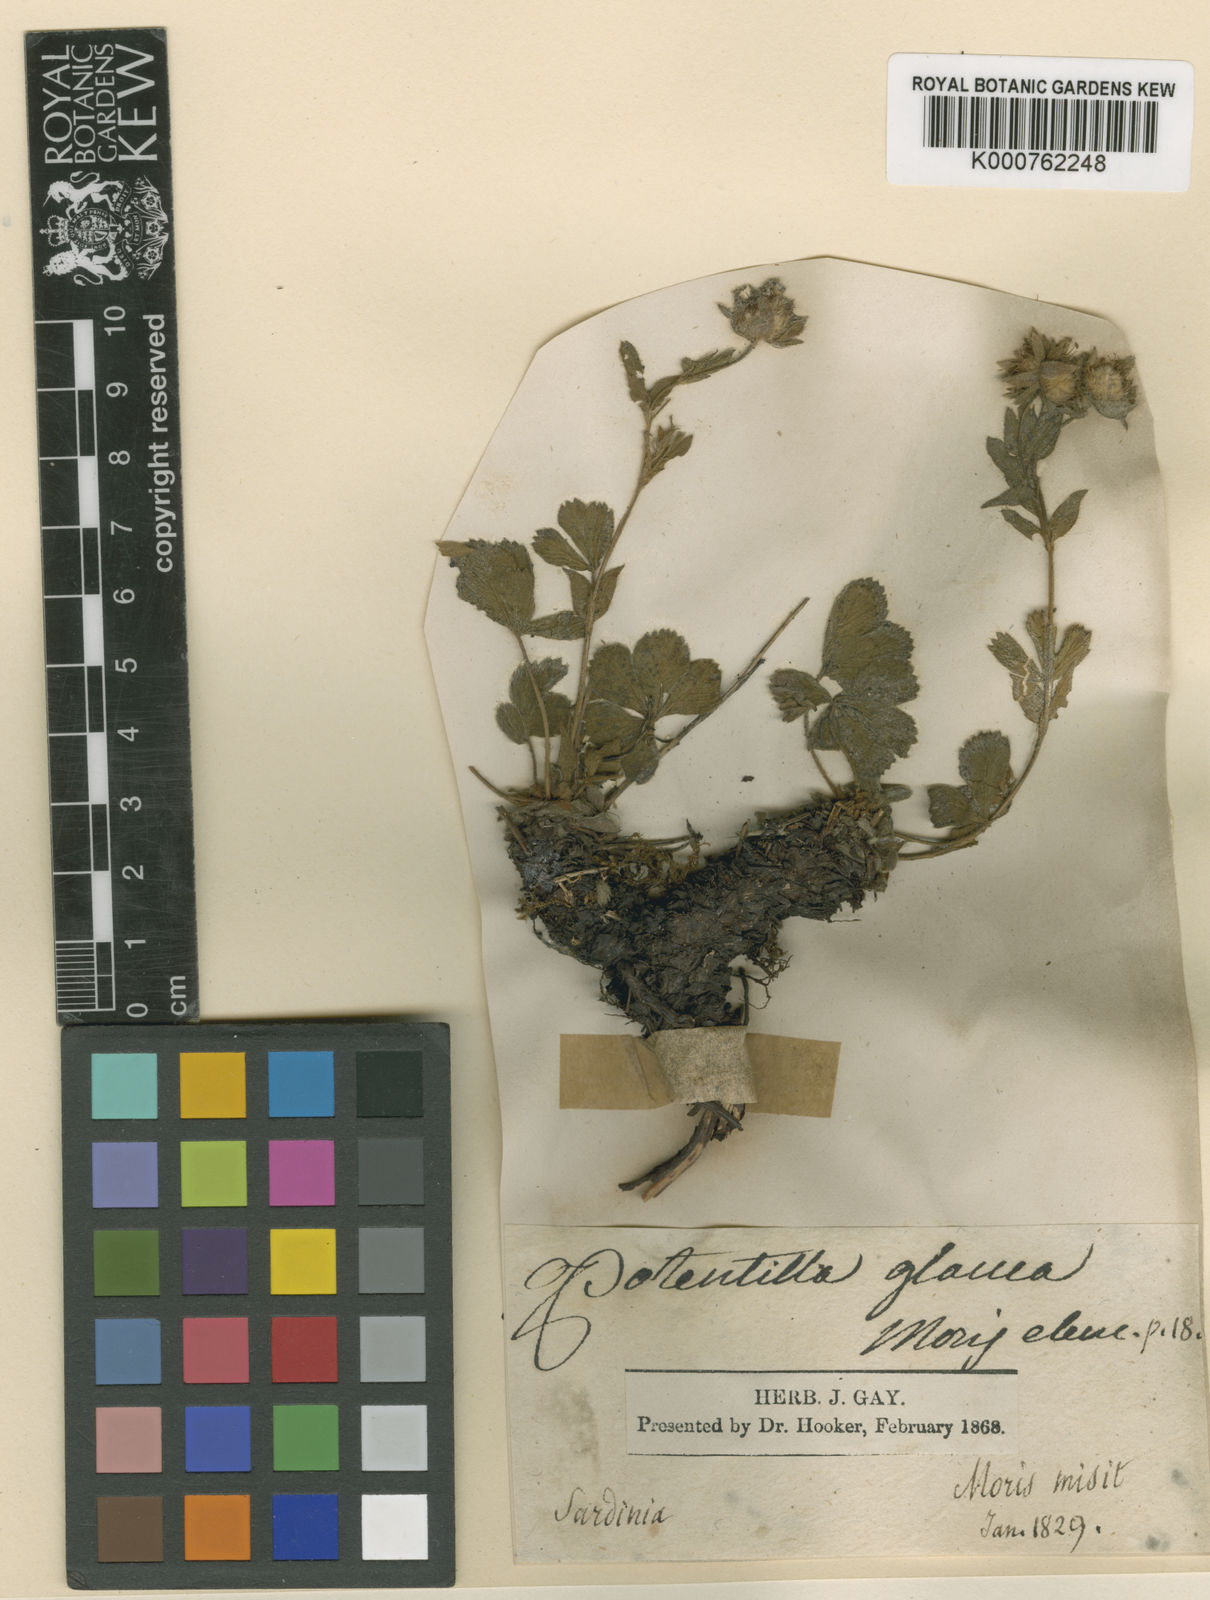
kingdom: Plantae
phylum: Tracheophyta
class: Magnoliopsida
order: Rosales
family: Rosaceae
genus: Potentilla
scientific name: Potentilla
